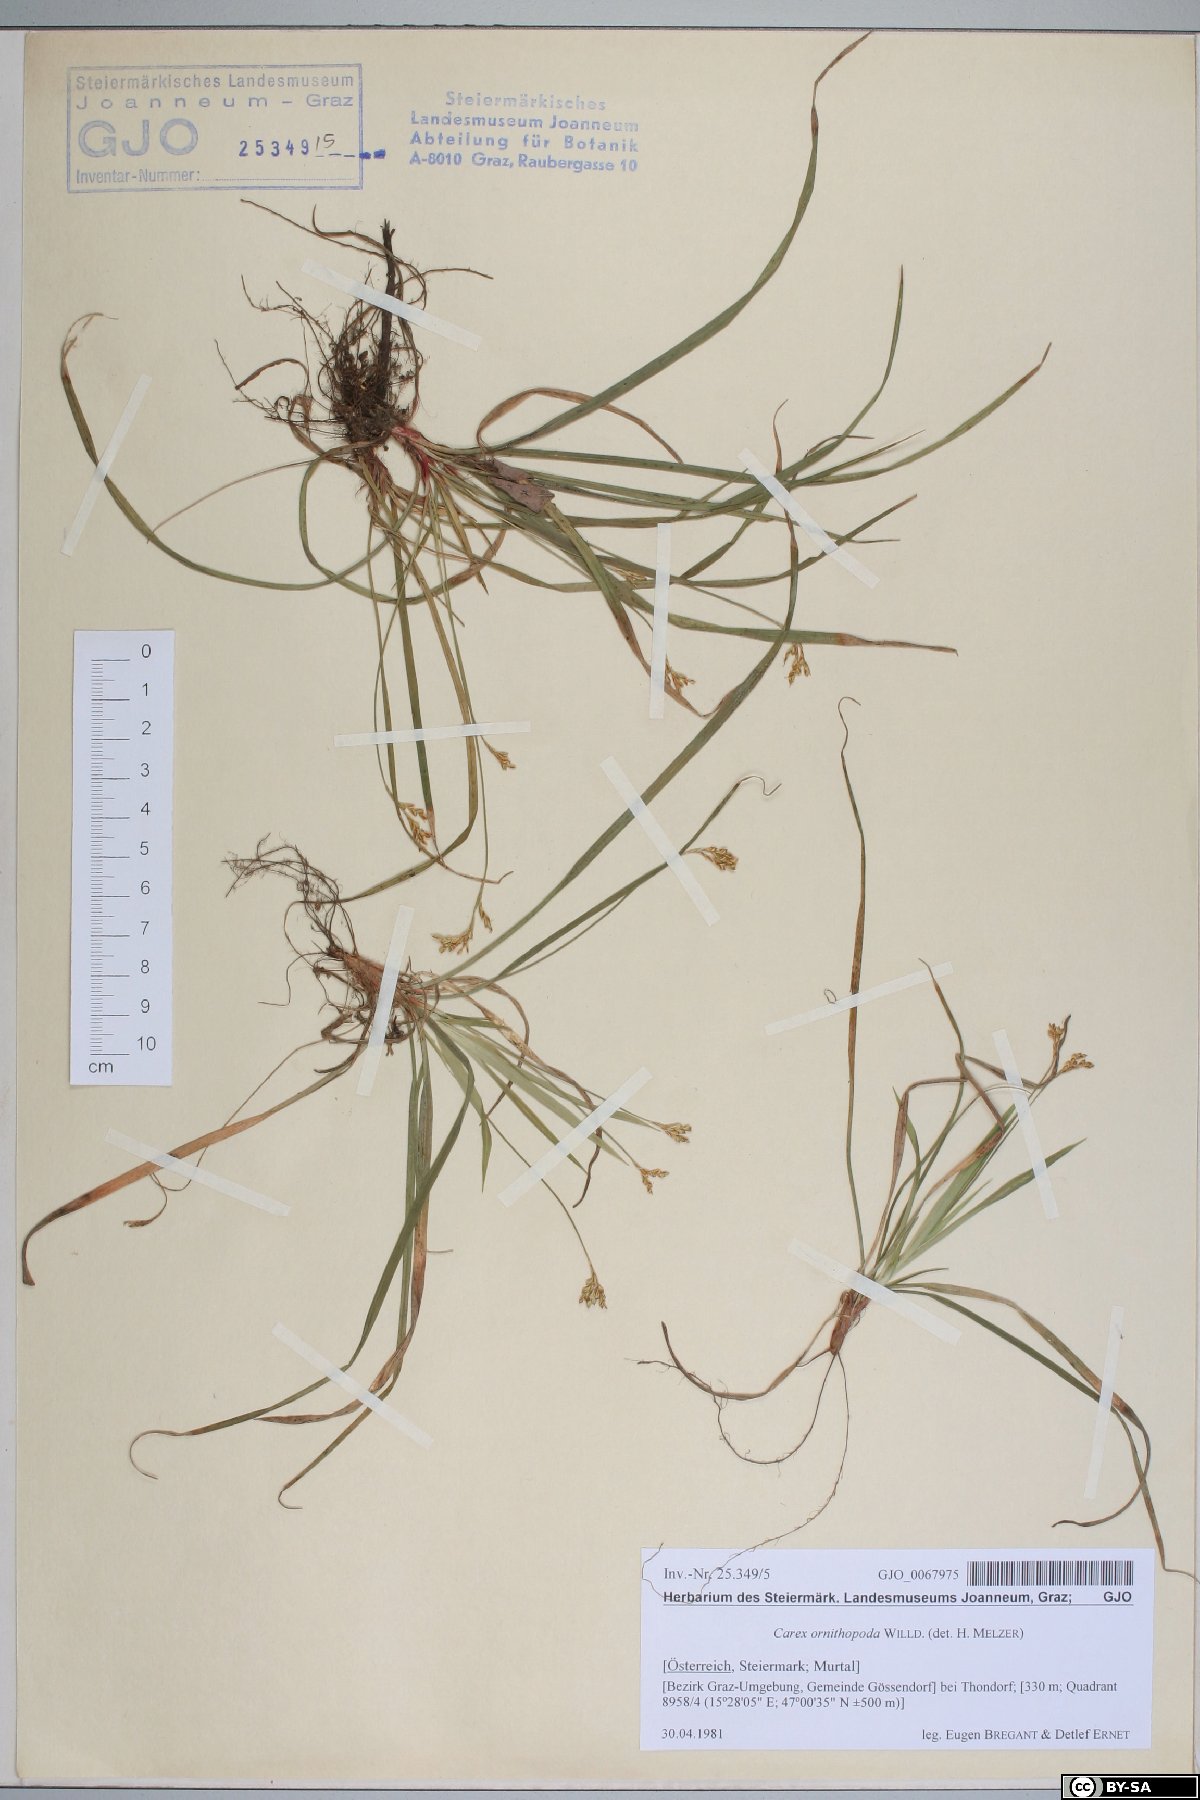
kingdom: Plantae
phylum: Tracheophyta
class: Liliopsida
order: Poales
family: Cyperaceae
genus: Carex
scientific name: Carex ornithopoda
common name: Bird's-foot sedge
